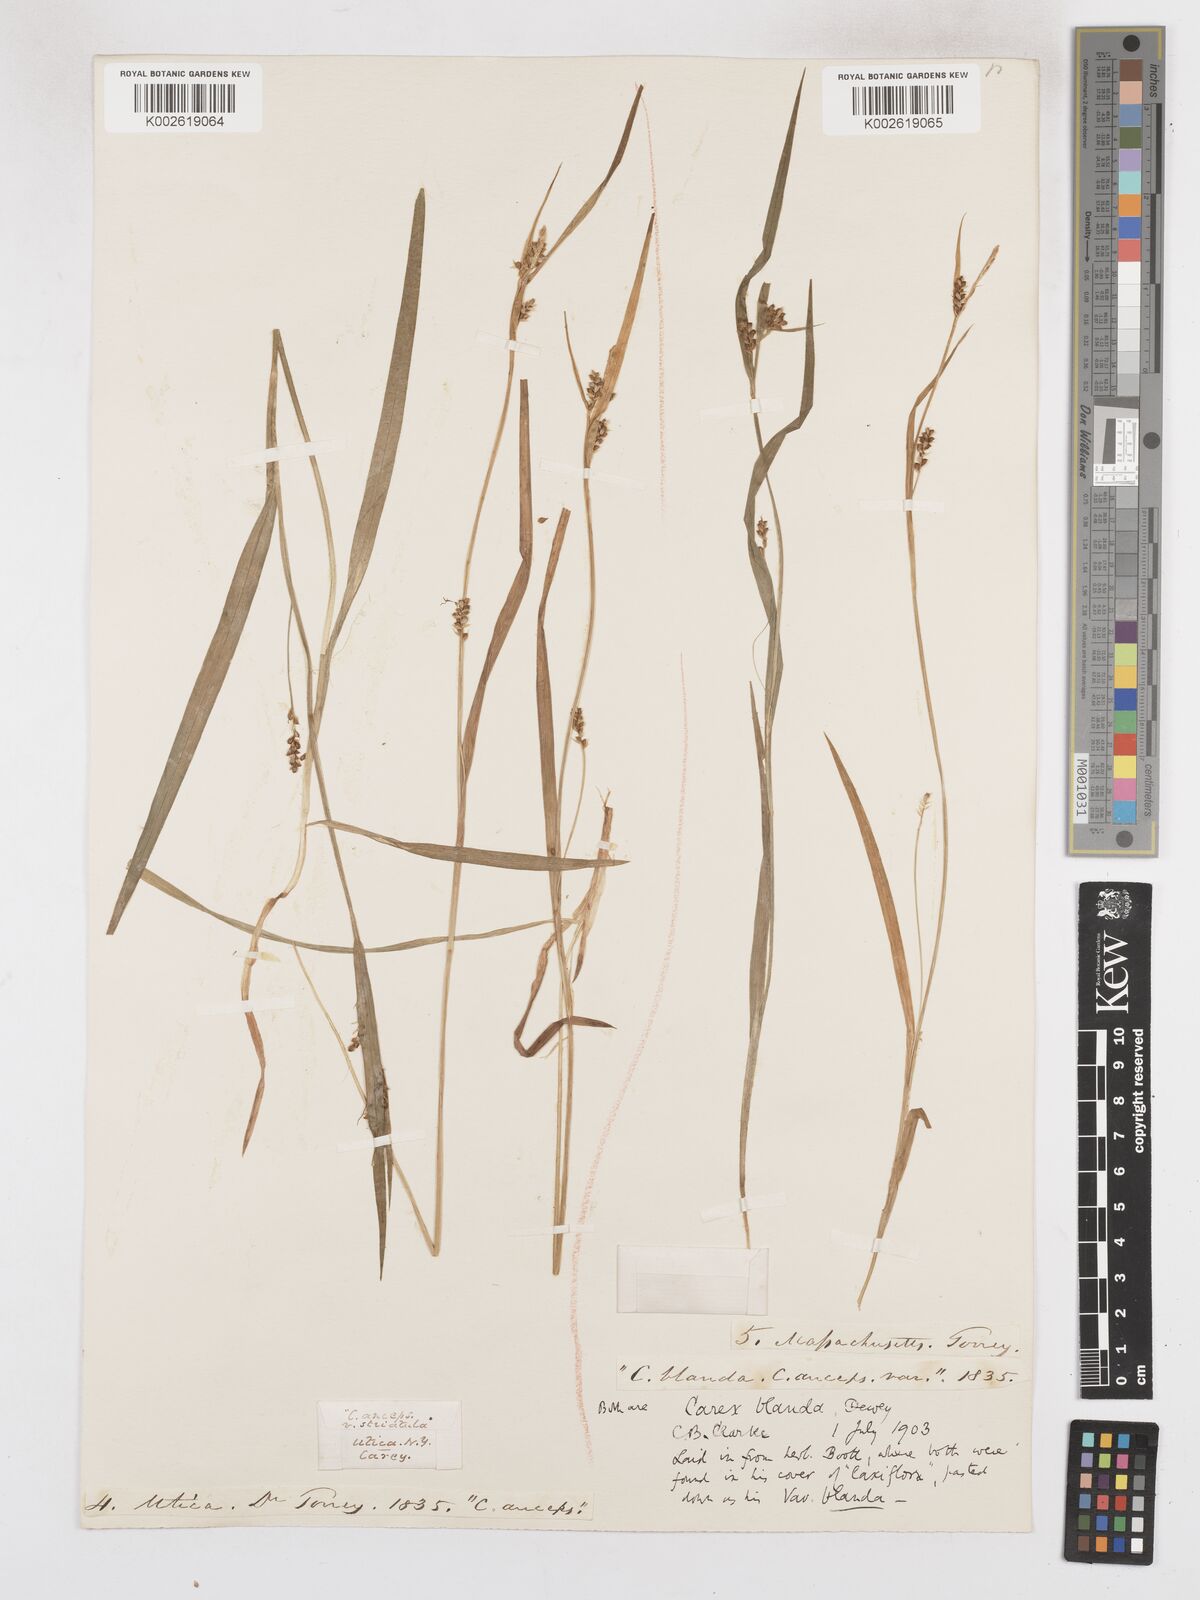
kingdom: Plantae
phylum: Tracheophyta
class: Liliopsida
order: Poales
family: Cyperaceae
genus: Carex
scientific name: Carex blanda
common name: Bland sedge
